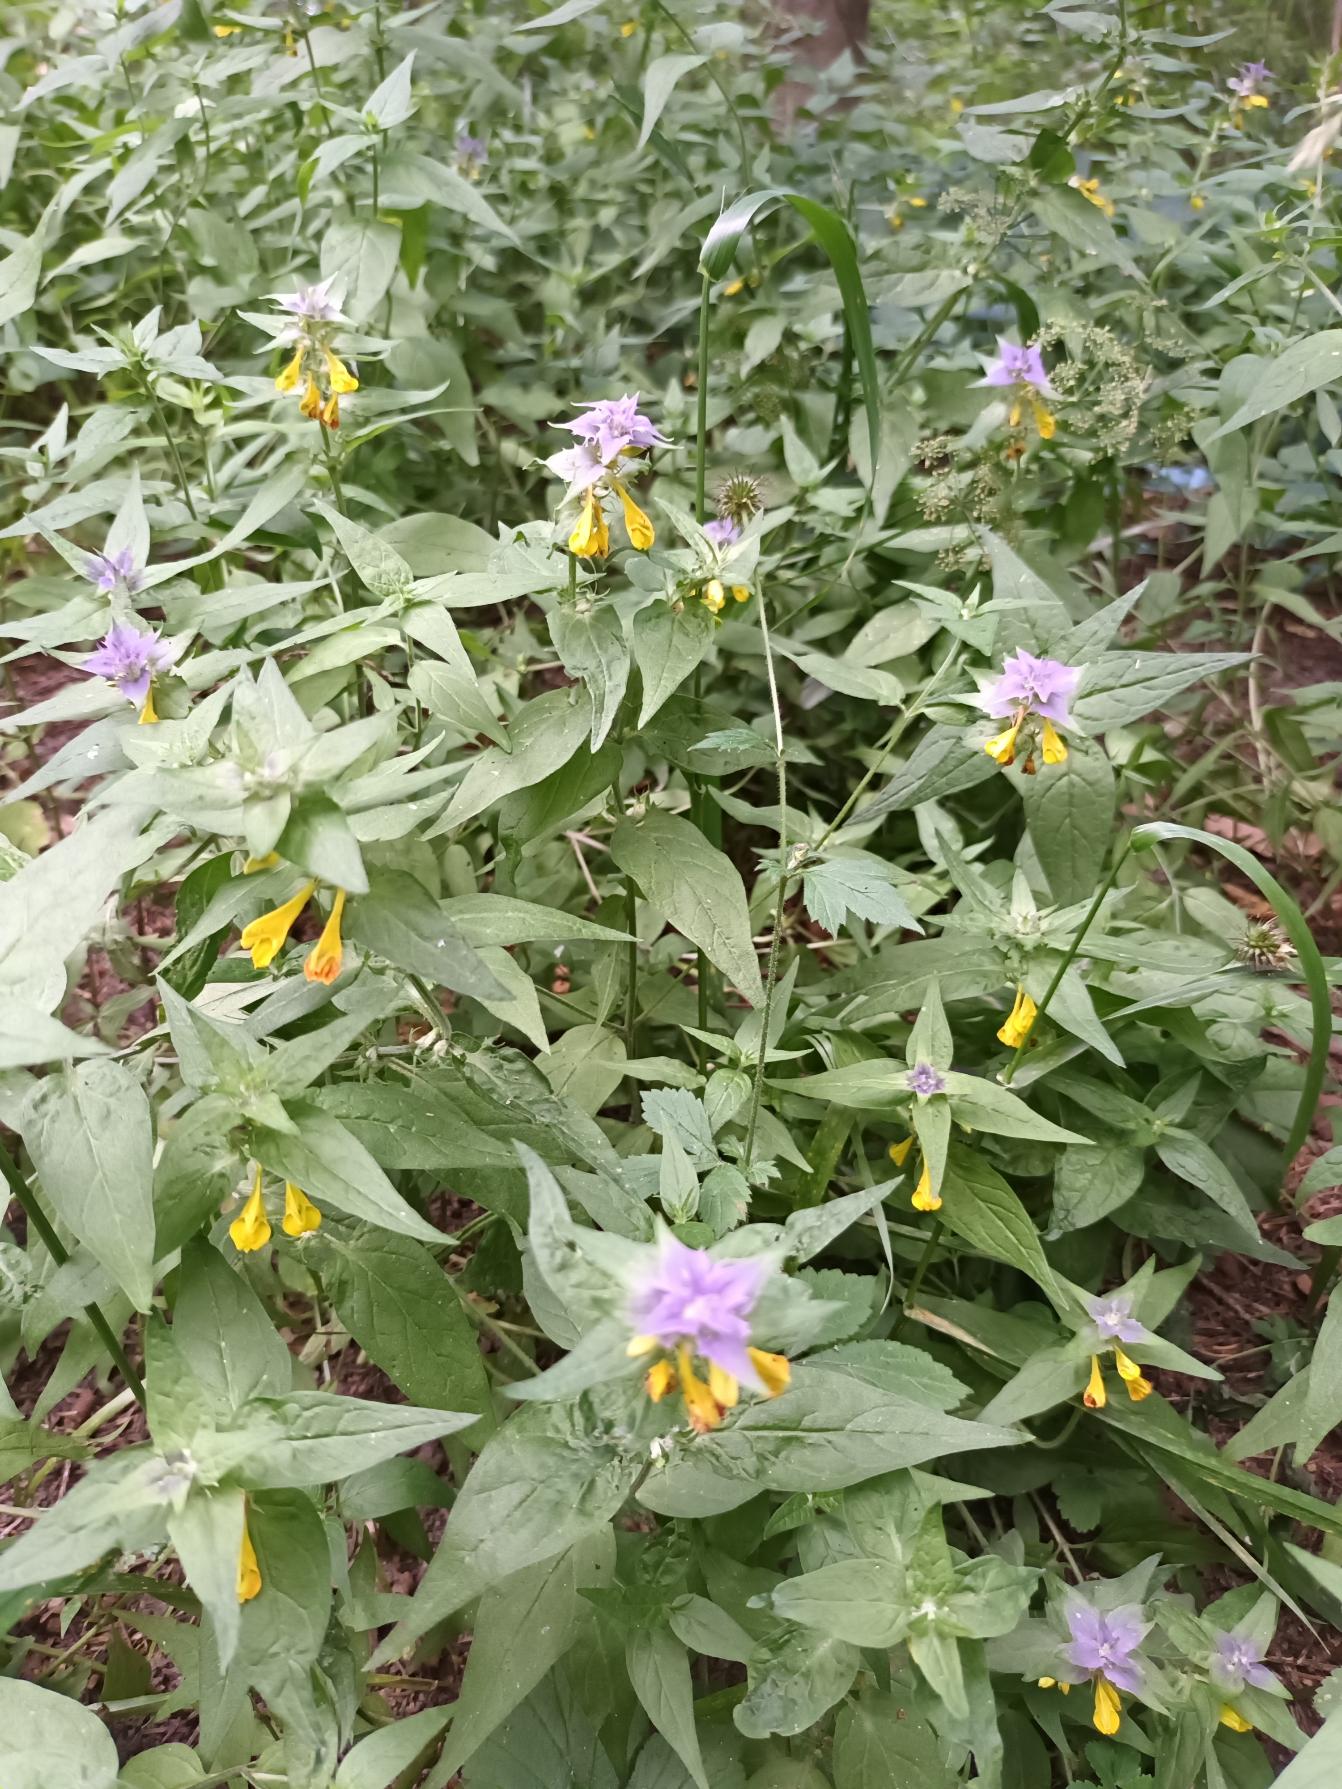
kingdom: Plantae
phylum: Tracheophyta
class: Magnoliopsida
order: Lamiales
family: Orobanchaceae
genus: Melampyrum
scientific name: Melampyrum nemorosum
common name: Blåtoppet kohvede
